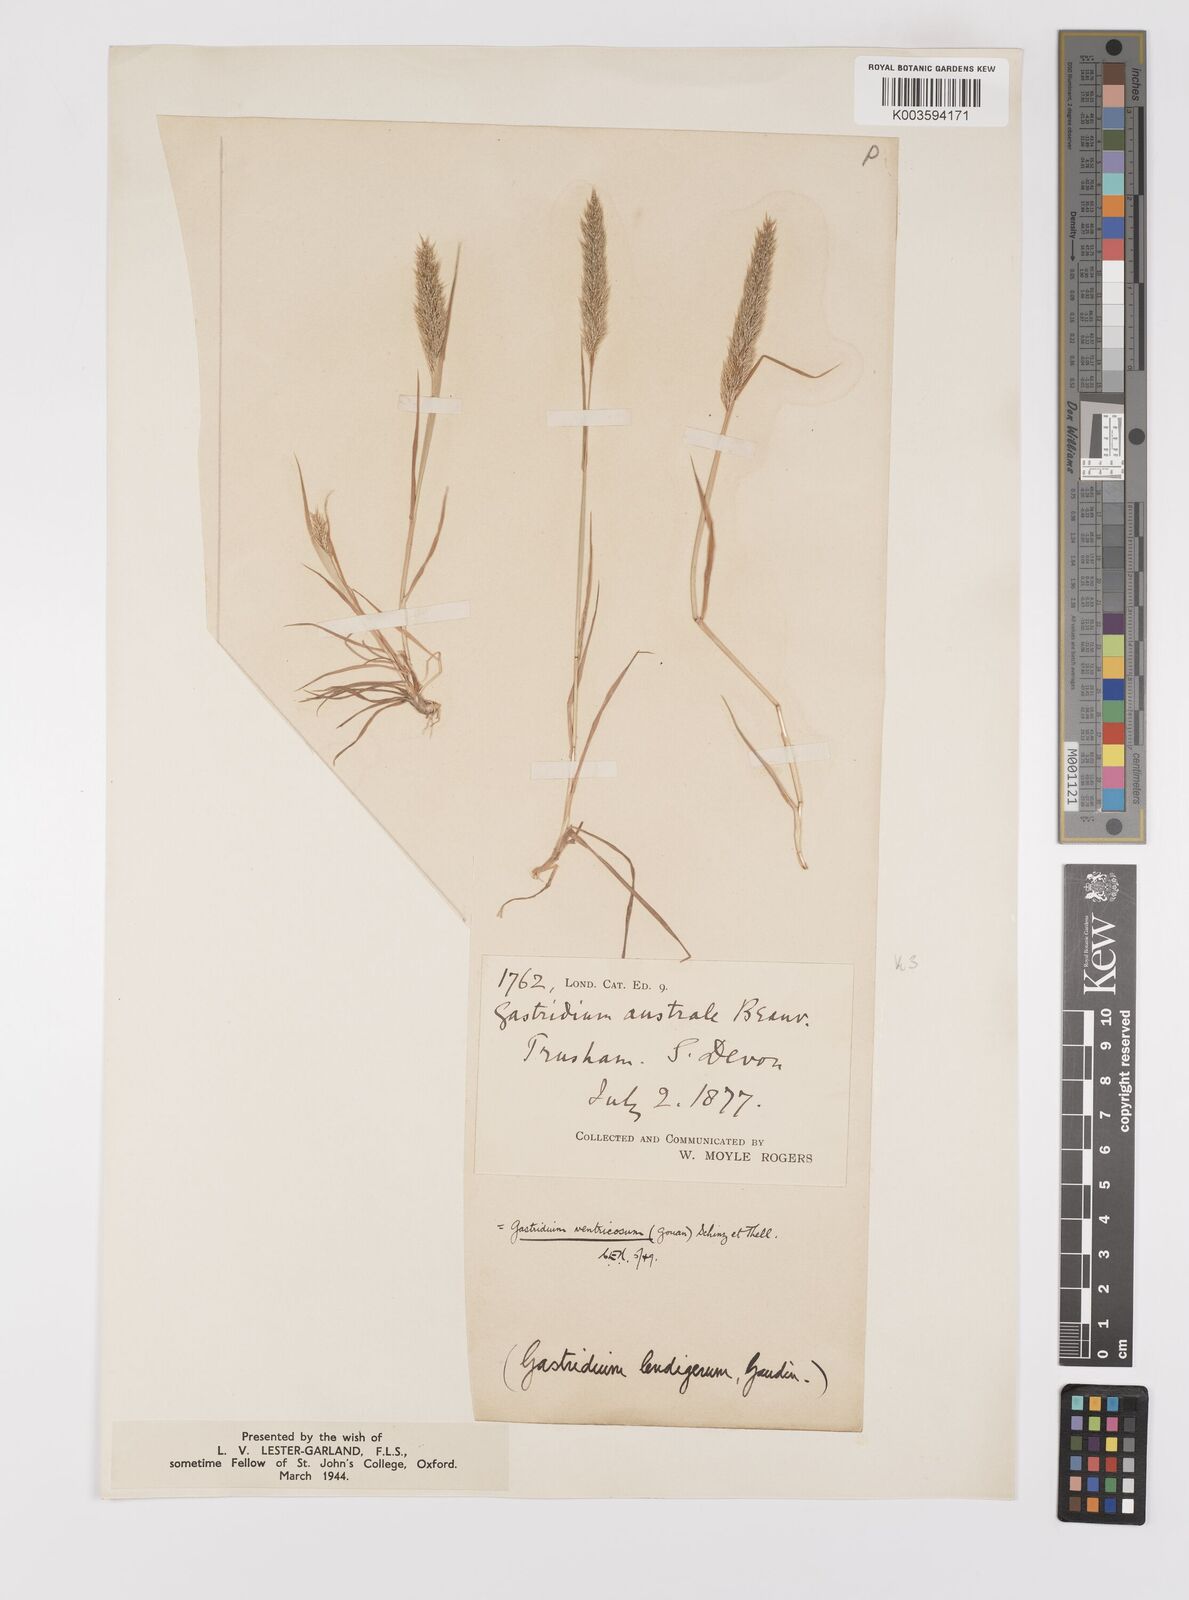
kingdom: Plantae
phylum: Tracheophyta
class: Liliopsida
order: Poales
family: Poaceae
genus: Gastridium
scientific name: Gastridium ventricosum
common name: Nit-grass
